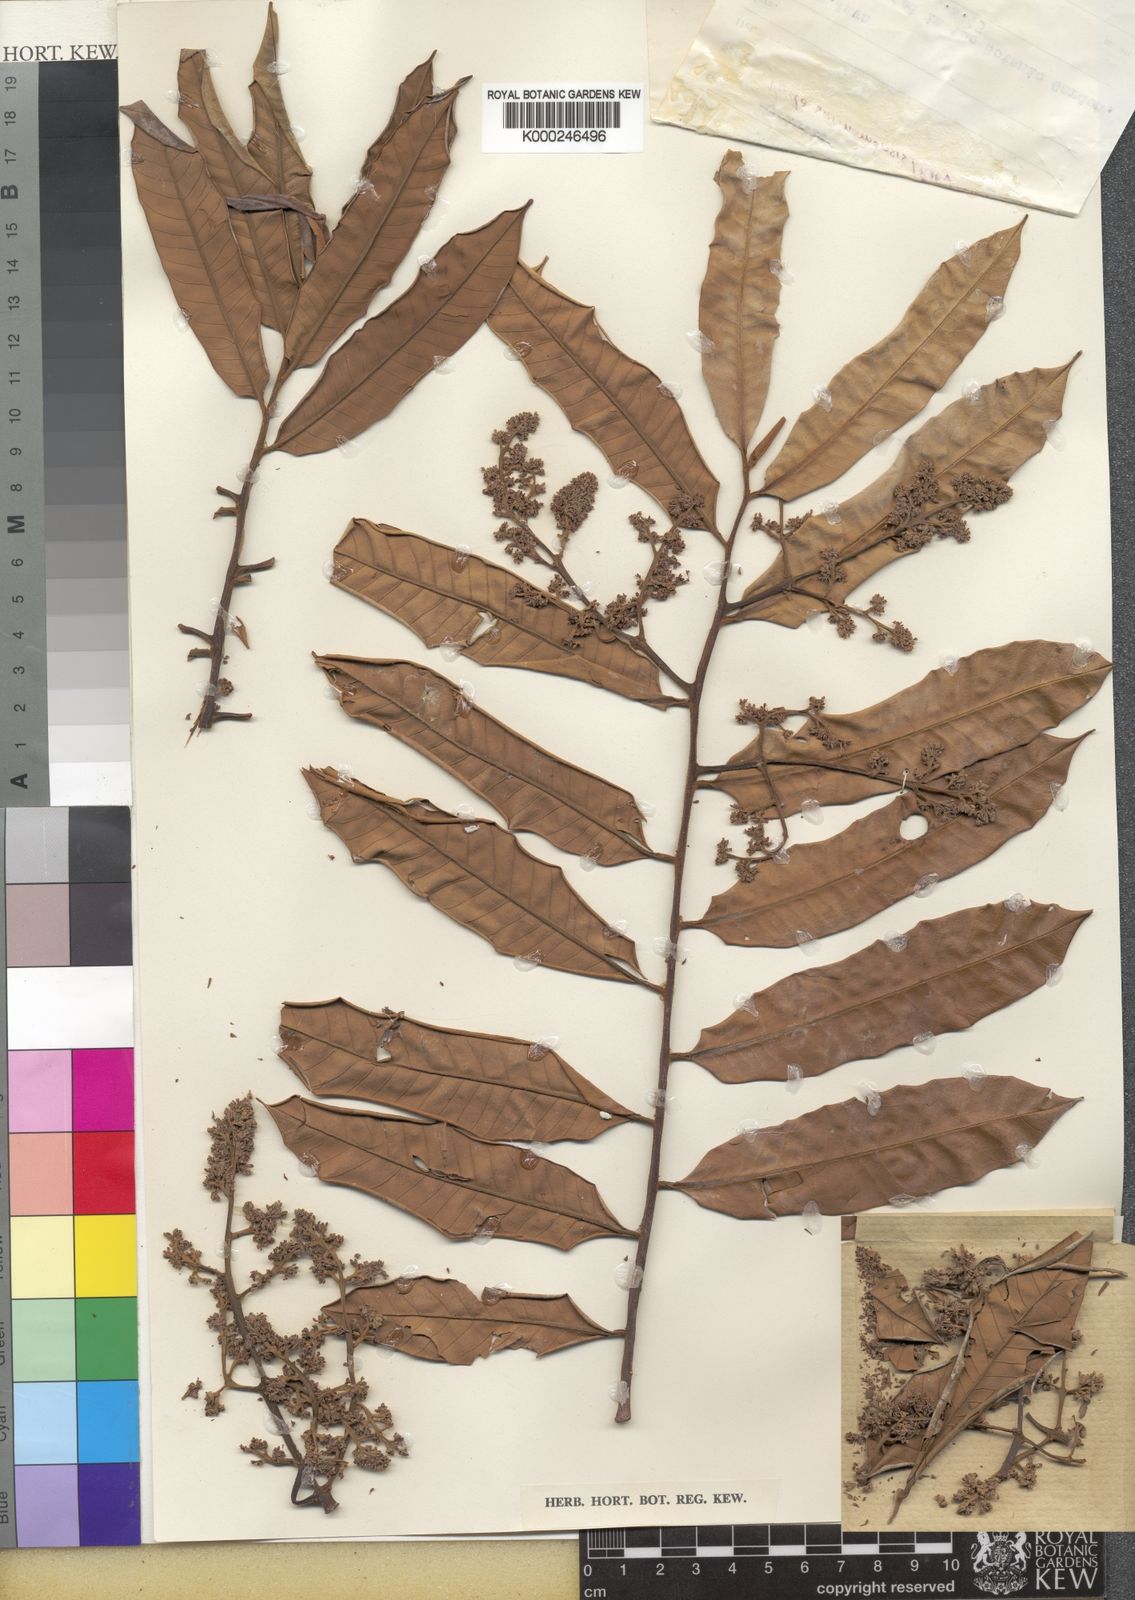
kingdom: Plantae
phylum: Tracheophyta
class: Magnoliopsida
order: Magnoliales
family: Myristicaceae
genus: Virola
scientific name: Virola surinamensis
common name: Baboonwood
